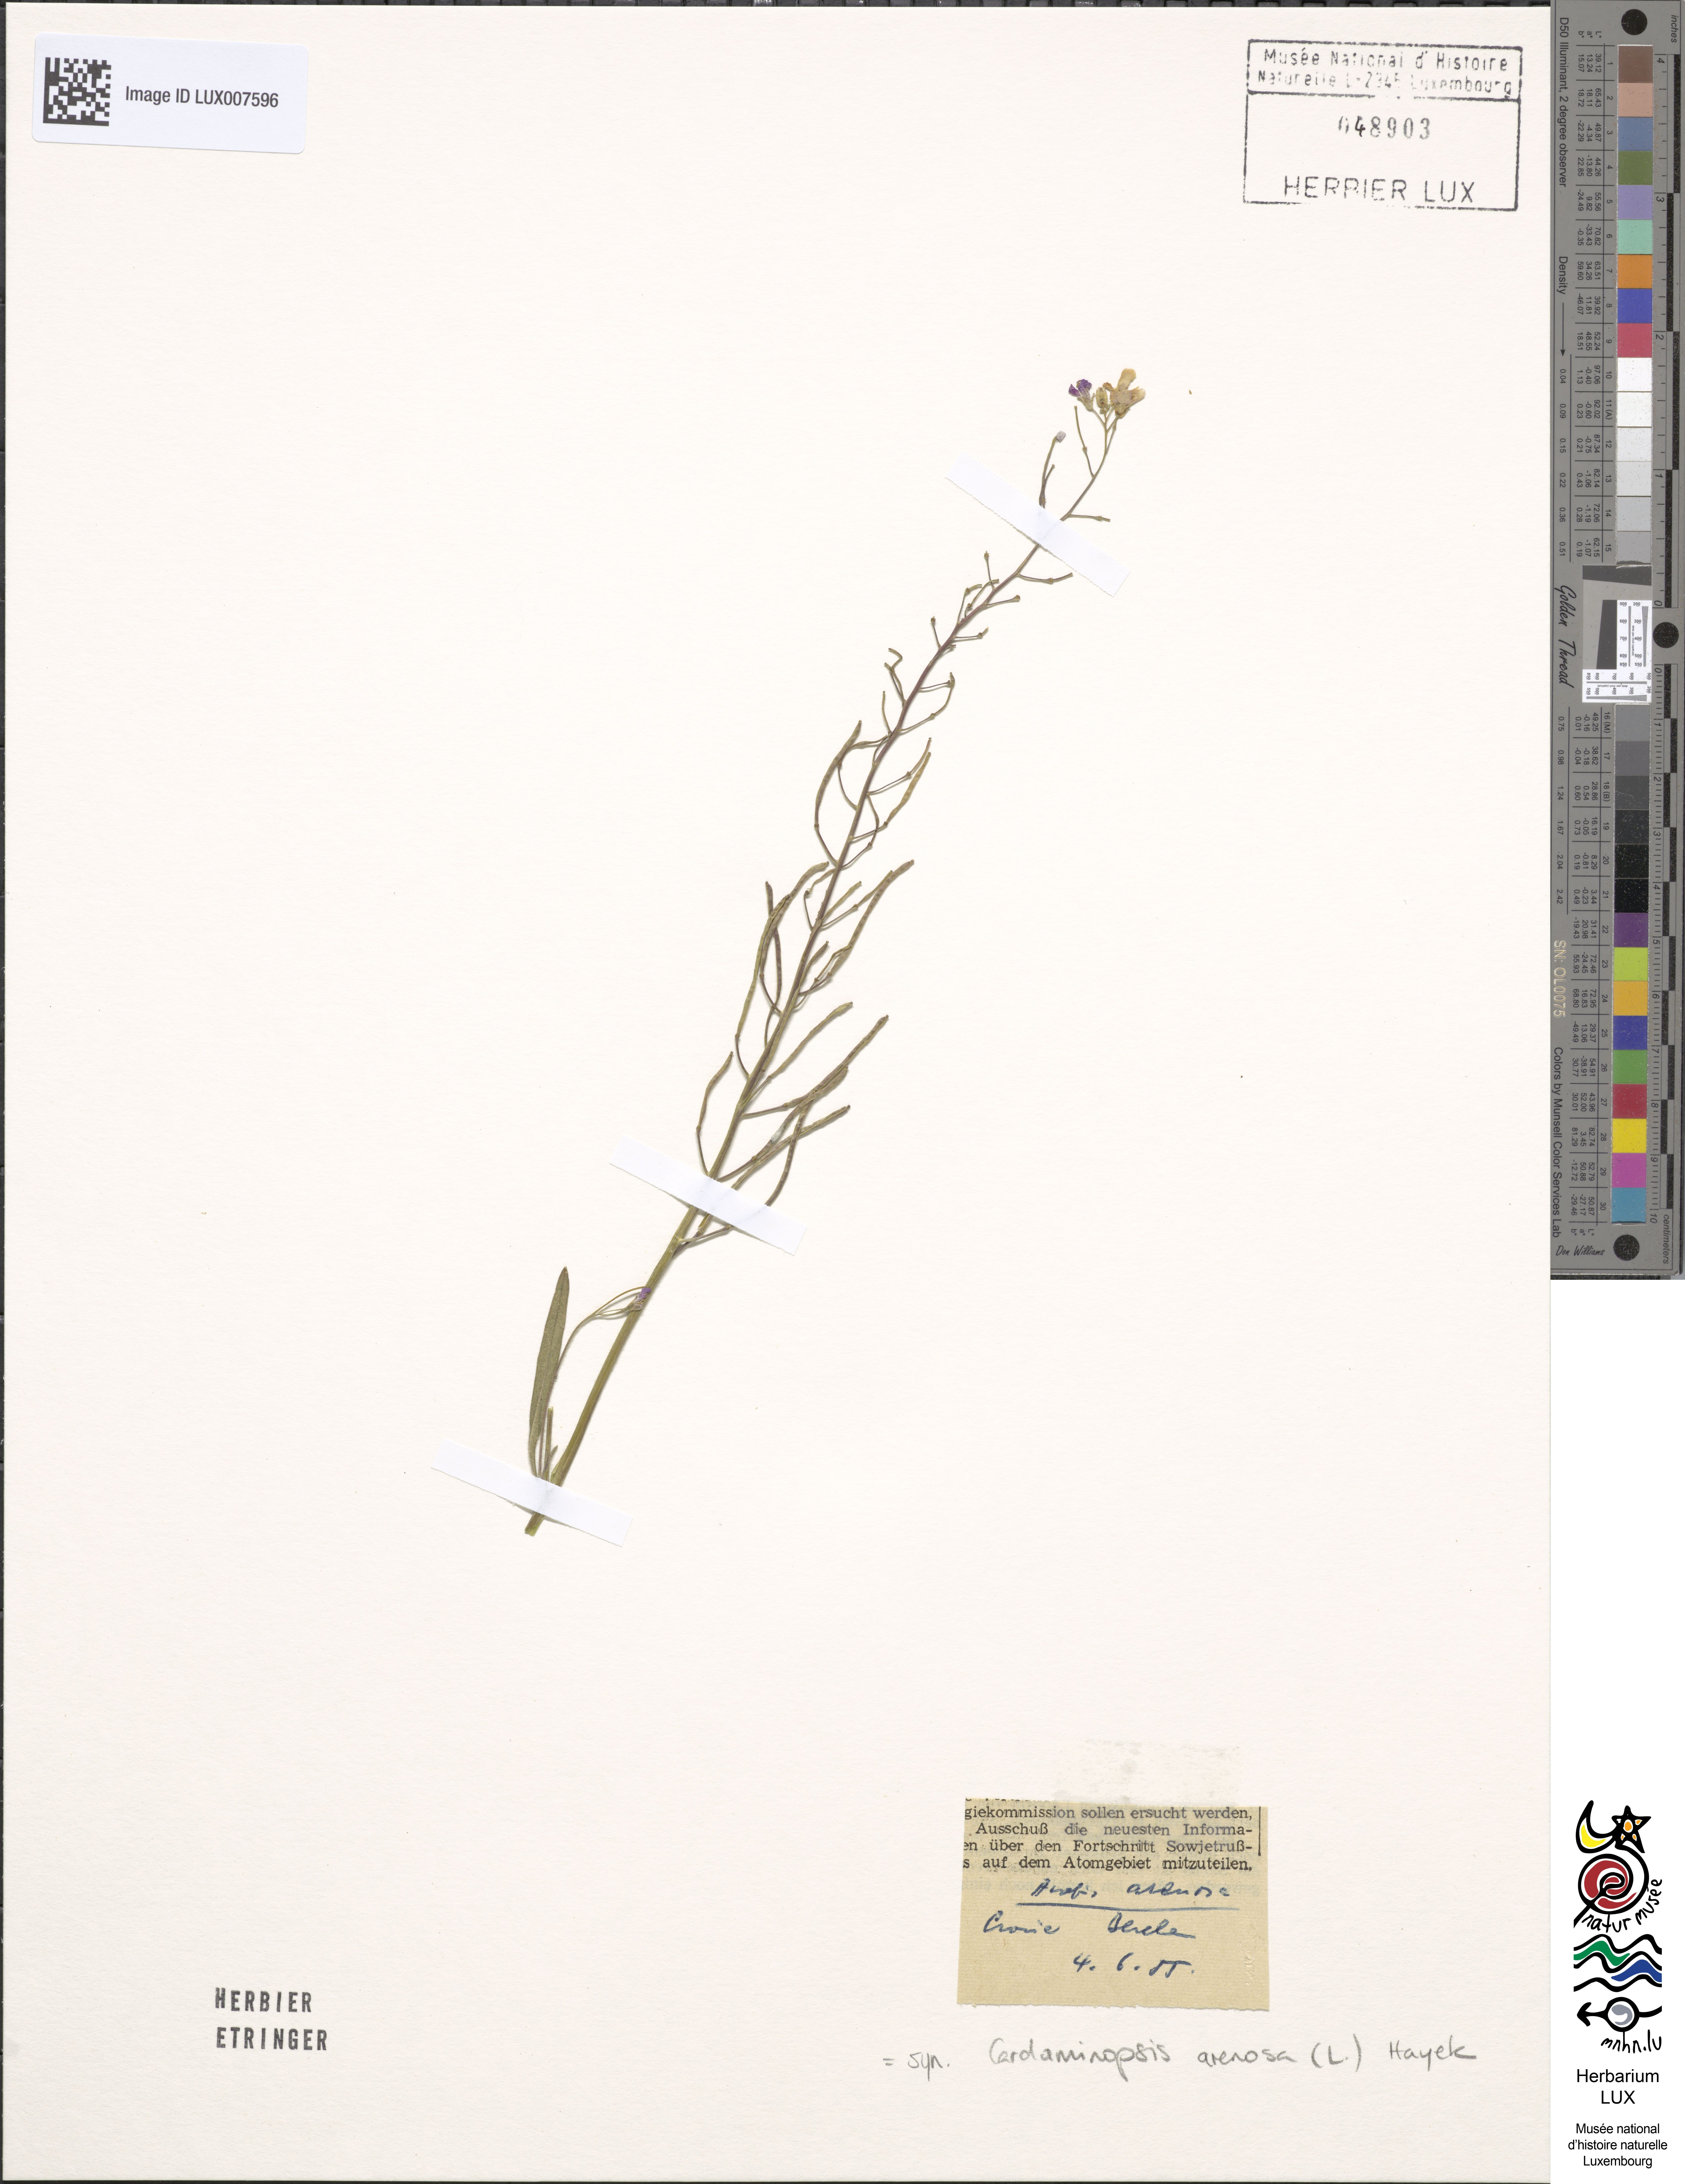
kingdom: Plantae
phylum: Tracheophyta
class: Magnoliopsida
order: Brassicales
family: Brassicaceae
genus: Arabidopsis
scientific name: Arabidopsis arenosa
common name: Sand rock-cress
